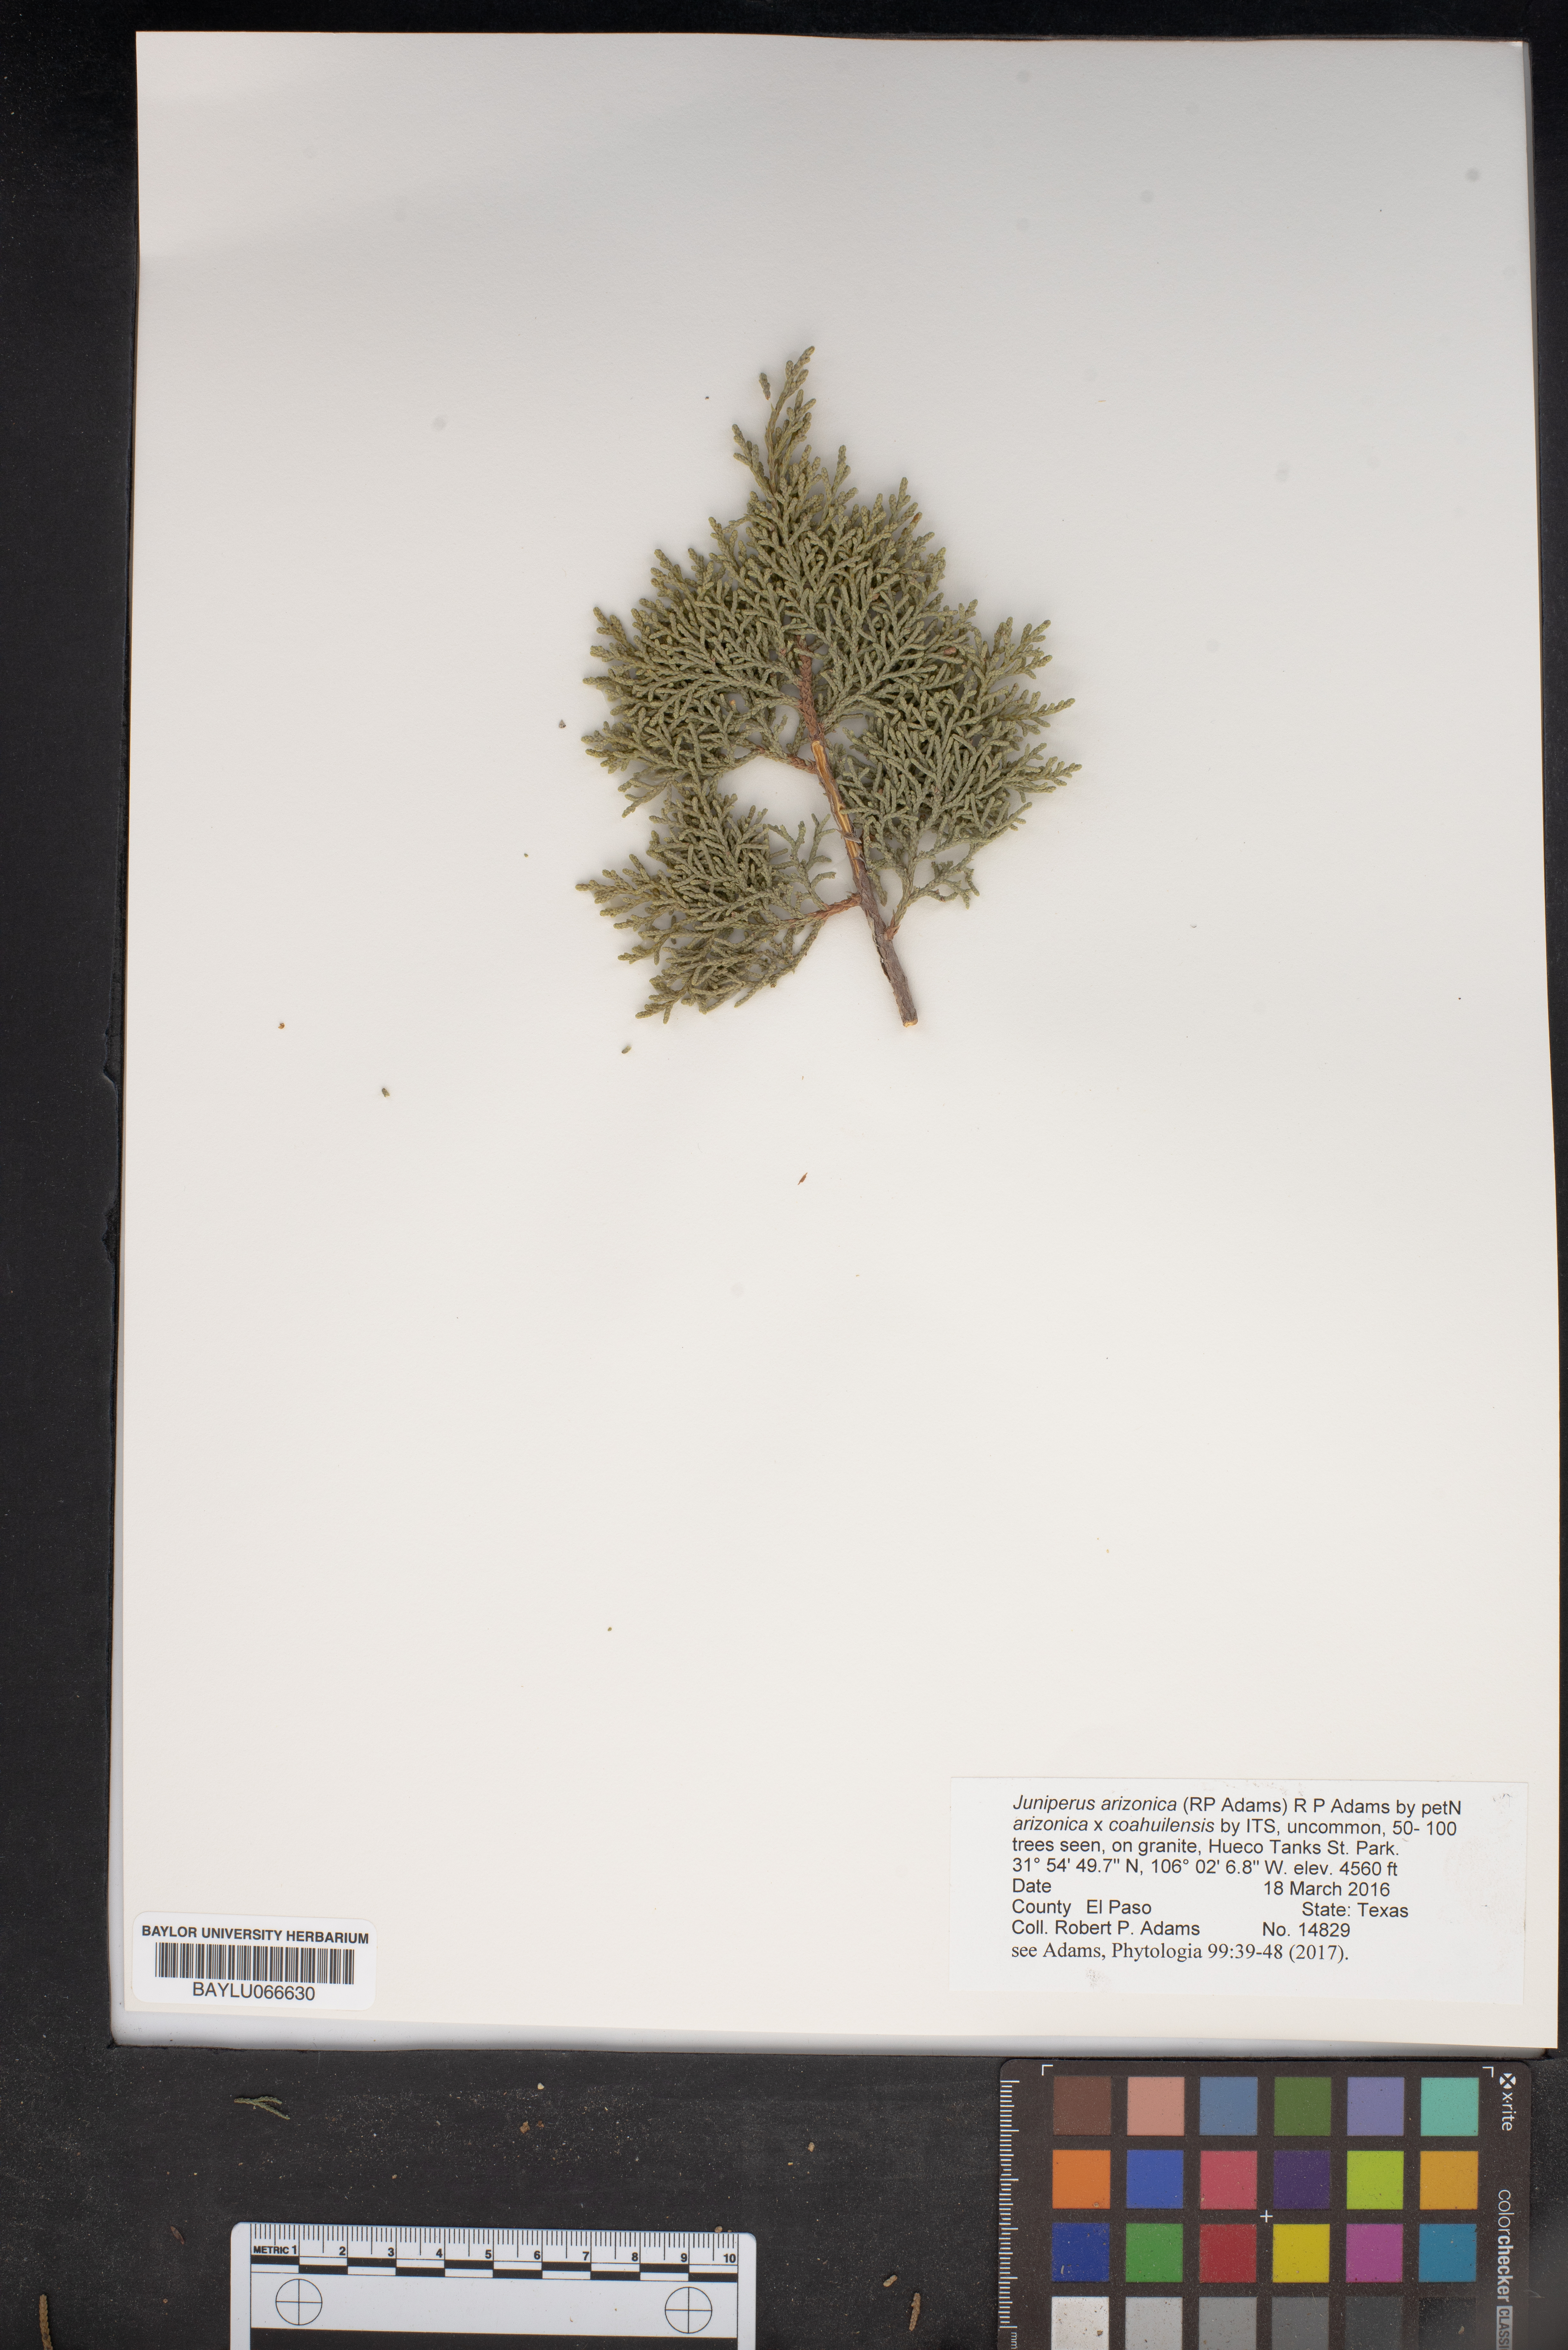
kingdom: Plantae
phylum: Tracheophyta
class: Pinopsida
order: Pinales
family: Cupressaceae
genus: Juniperus
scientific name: Juniperus arizonica
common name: Arizona juniper
